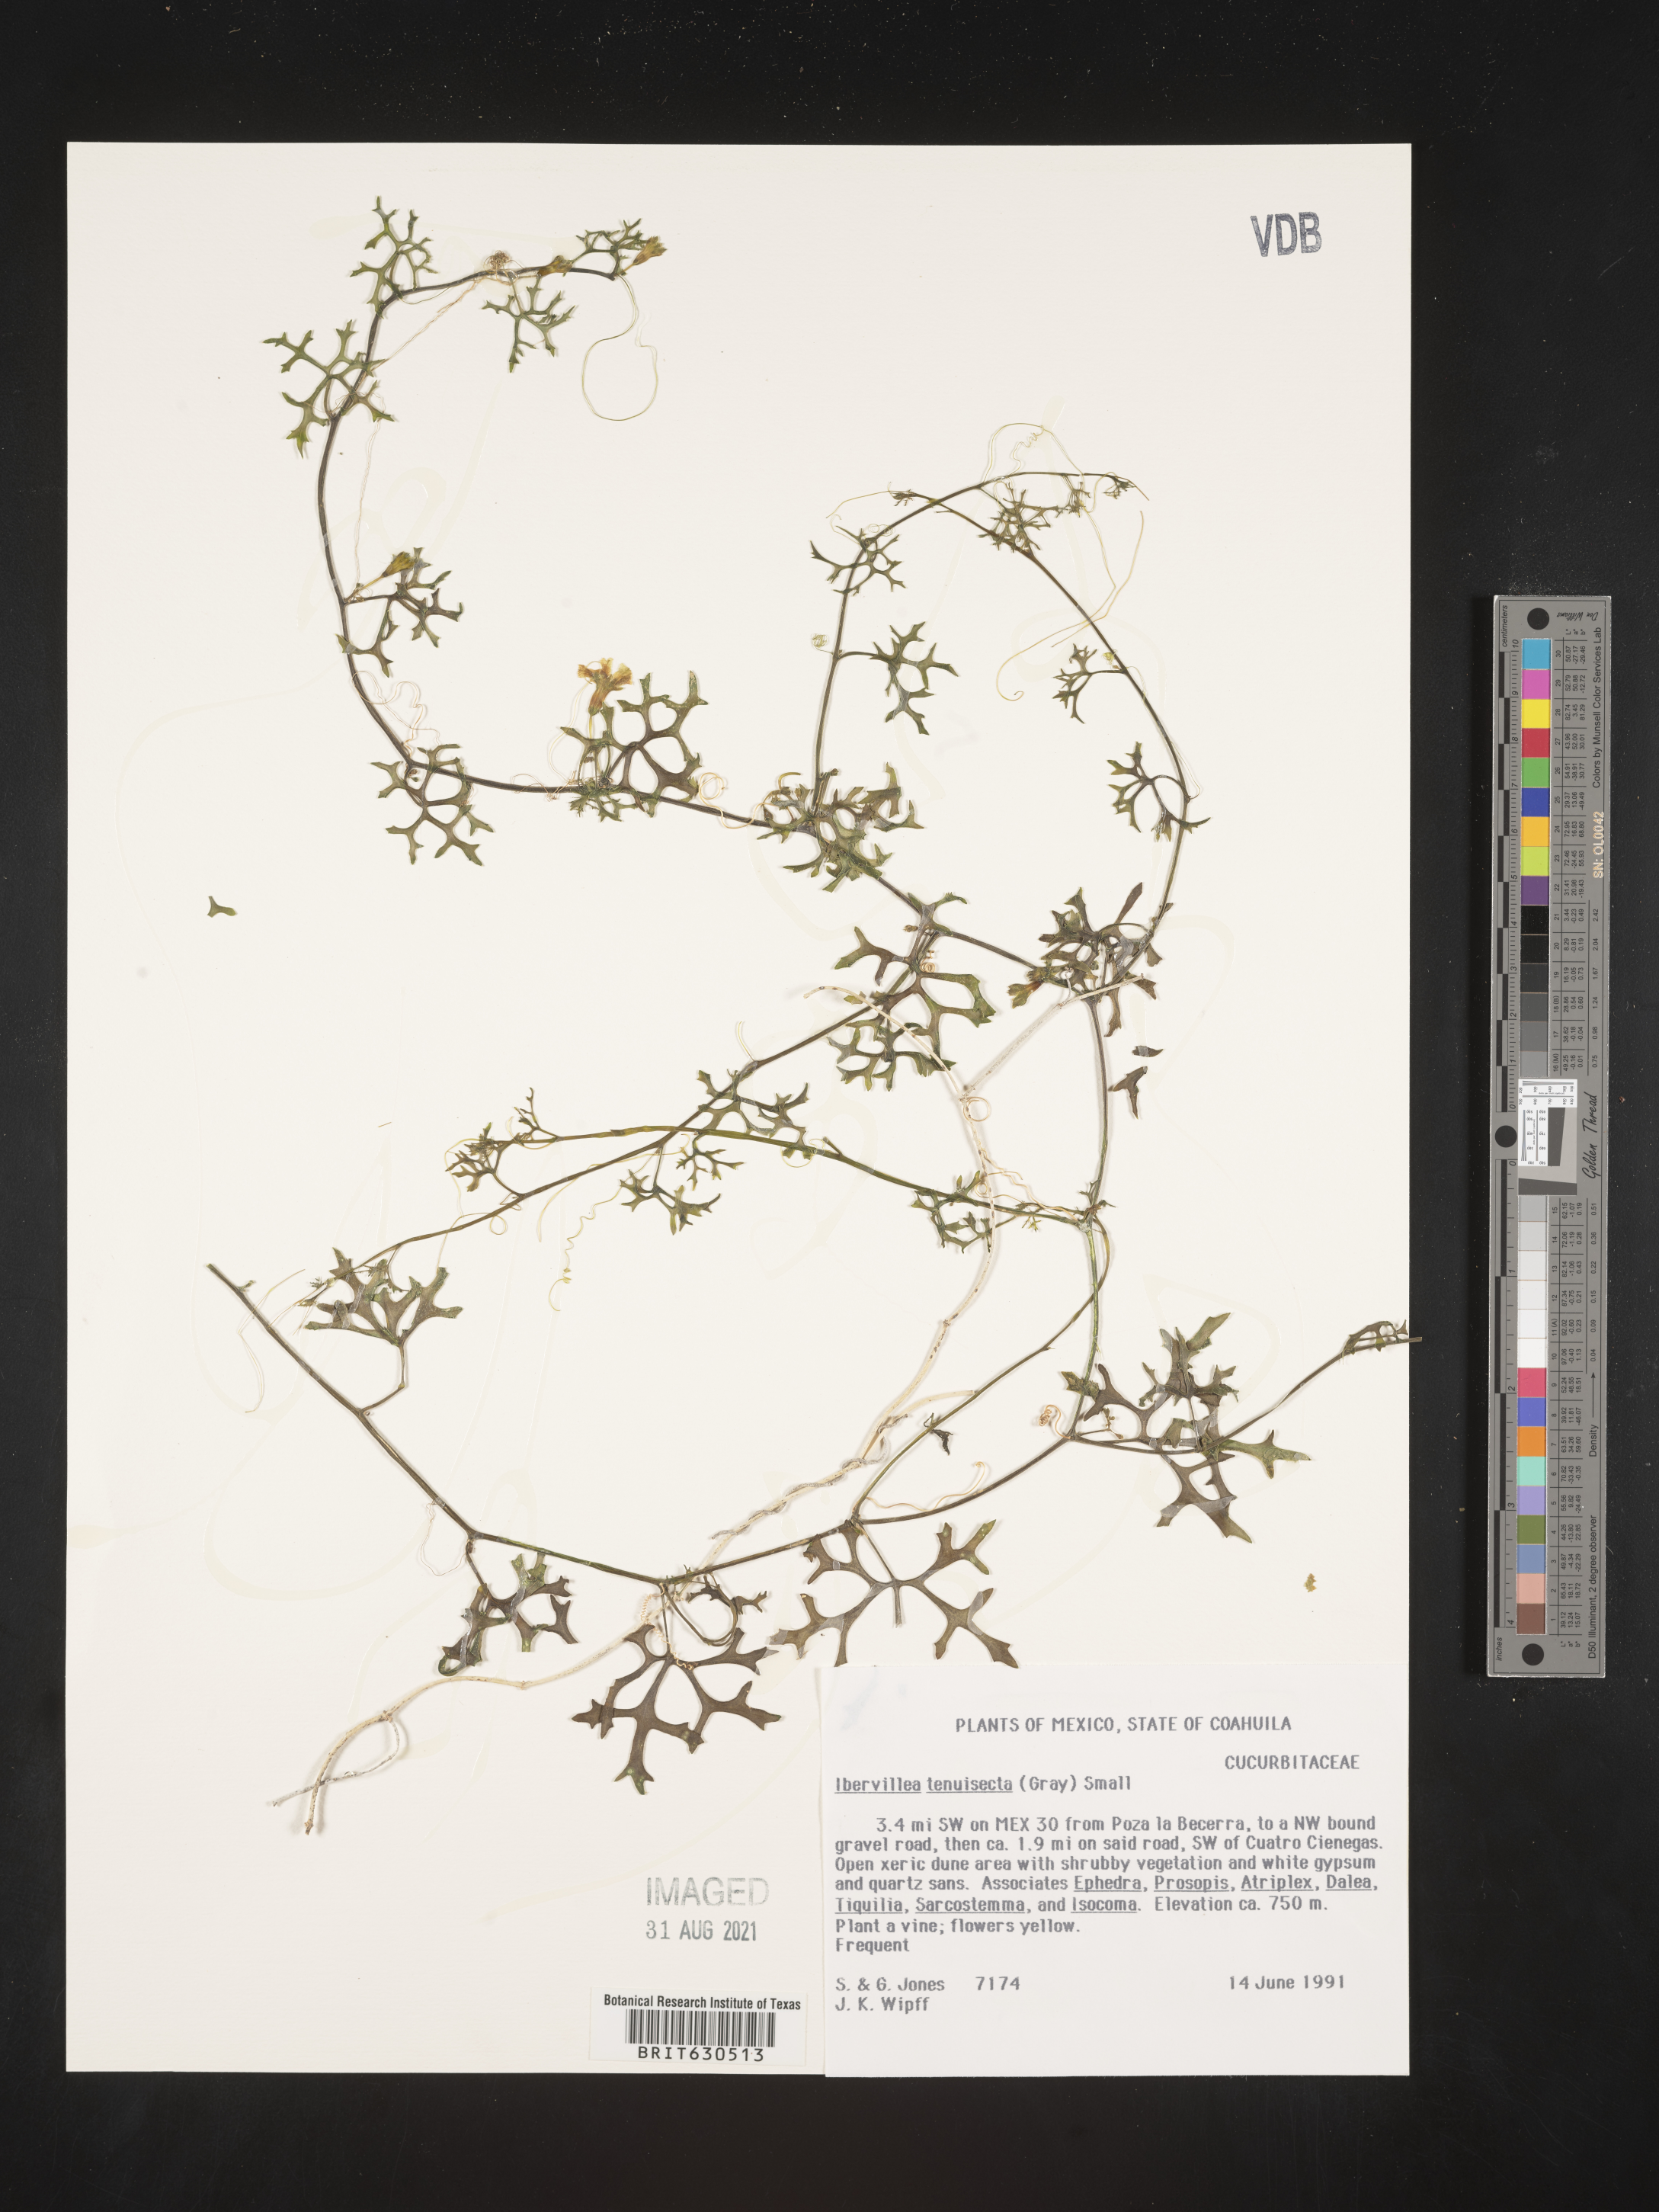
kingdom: Plantae
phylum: Tracheophyta
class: Magnoliopsida
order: Cucurbitales
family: Cucurbitaceae
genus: Ibervillea
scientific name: Ibervillea tenuisecta
